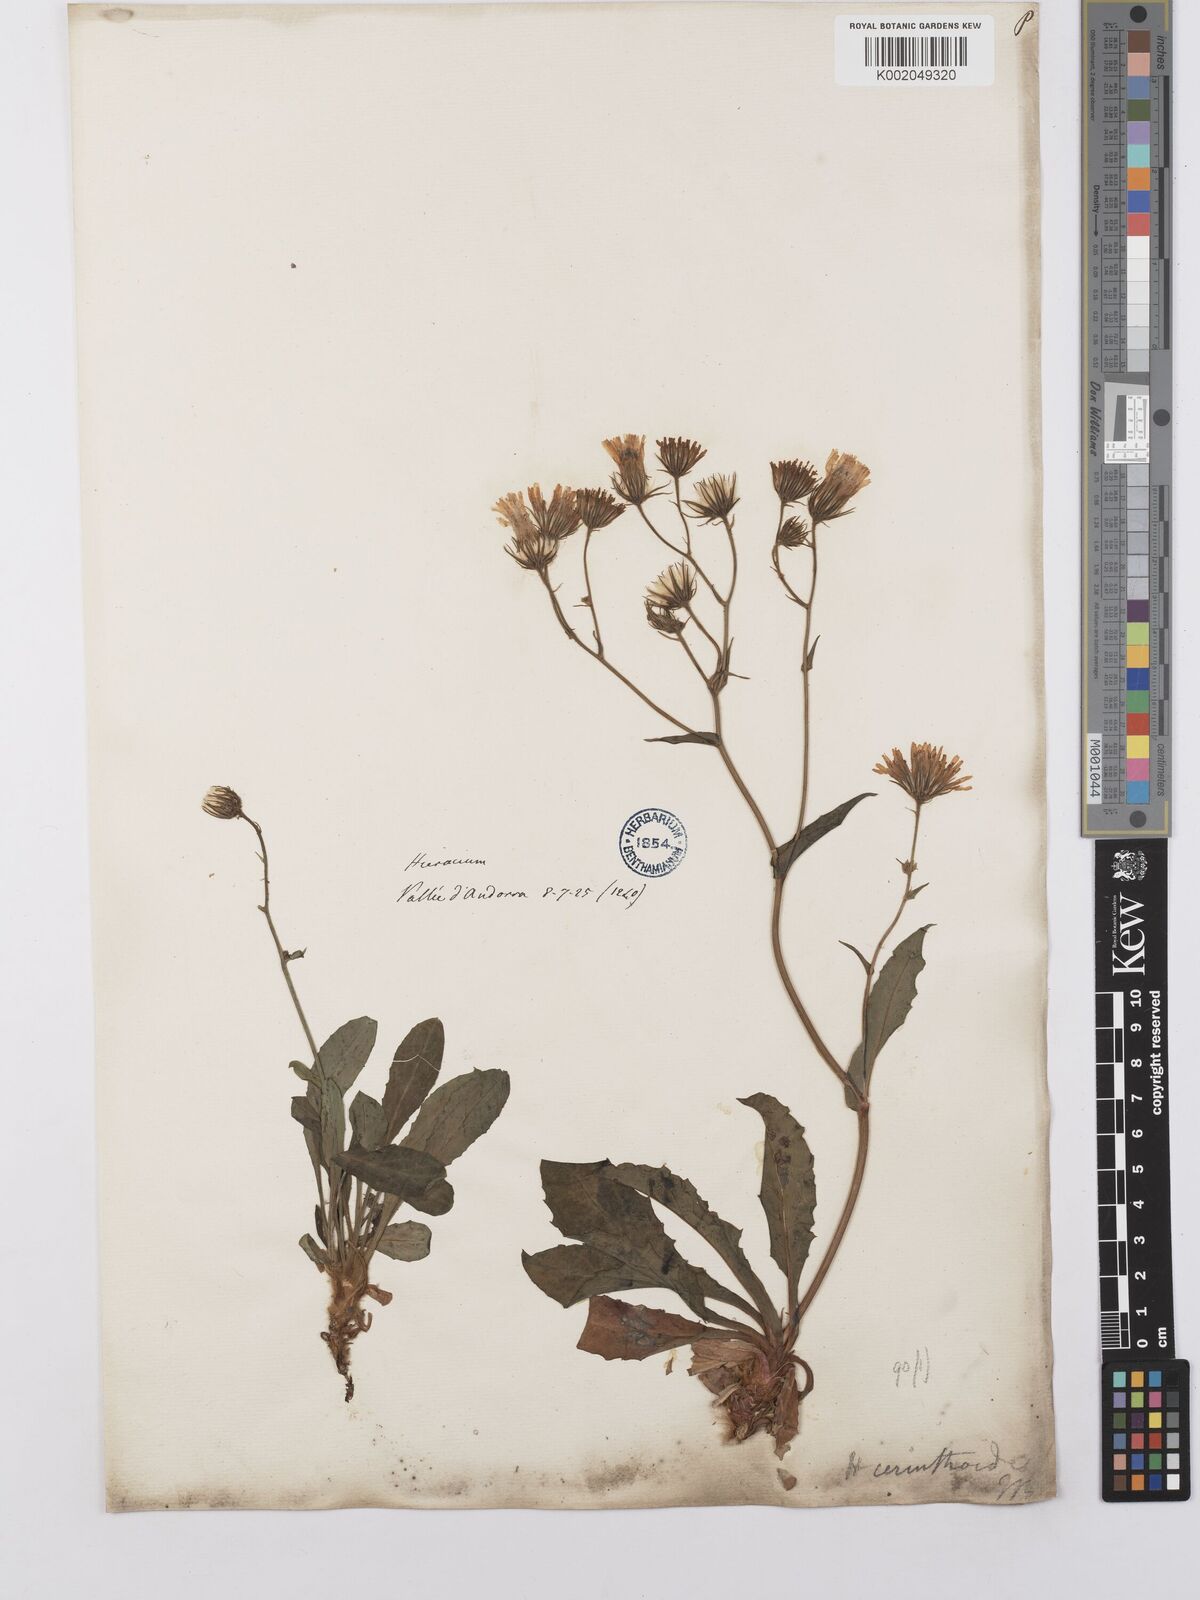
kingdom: Plantae
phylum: Tracheophyta
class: Magnoliopsida
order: Asterales
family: Asteraceae
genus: Hieracium
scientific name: Hieracium cerinthoides
